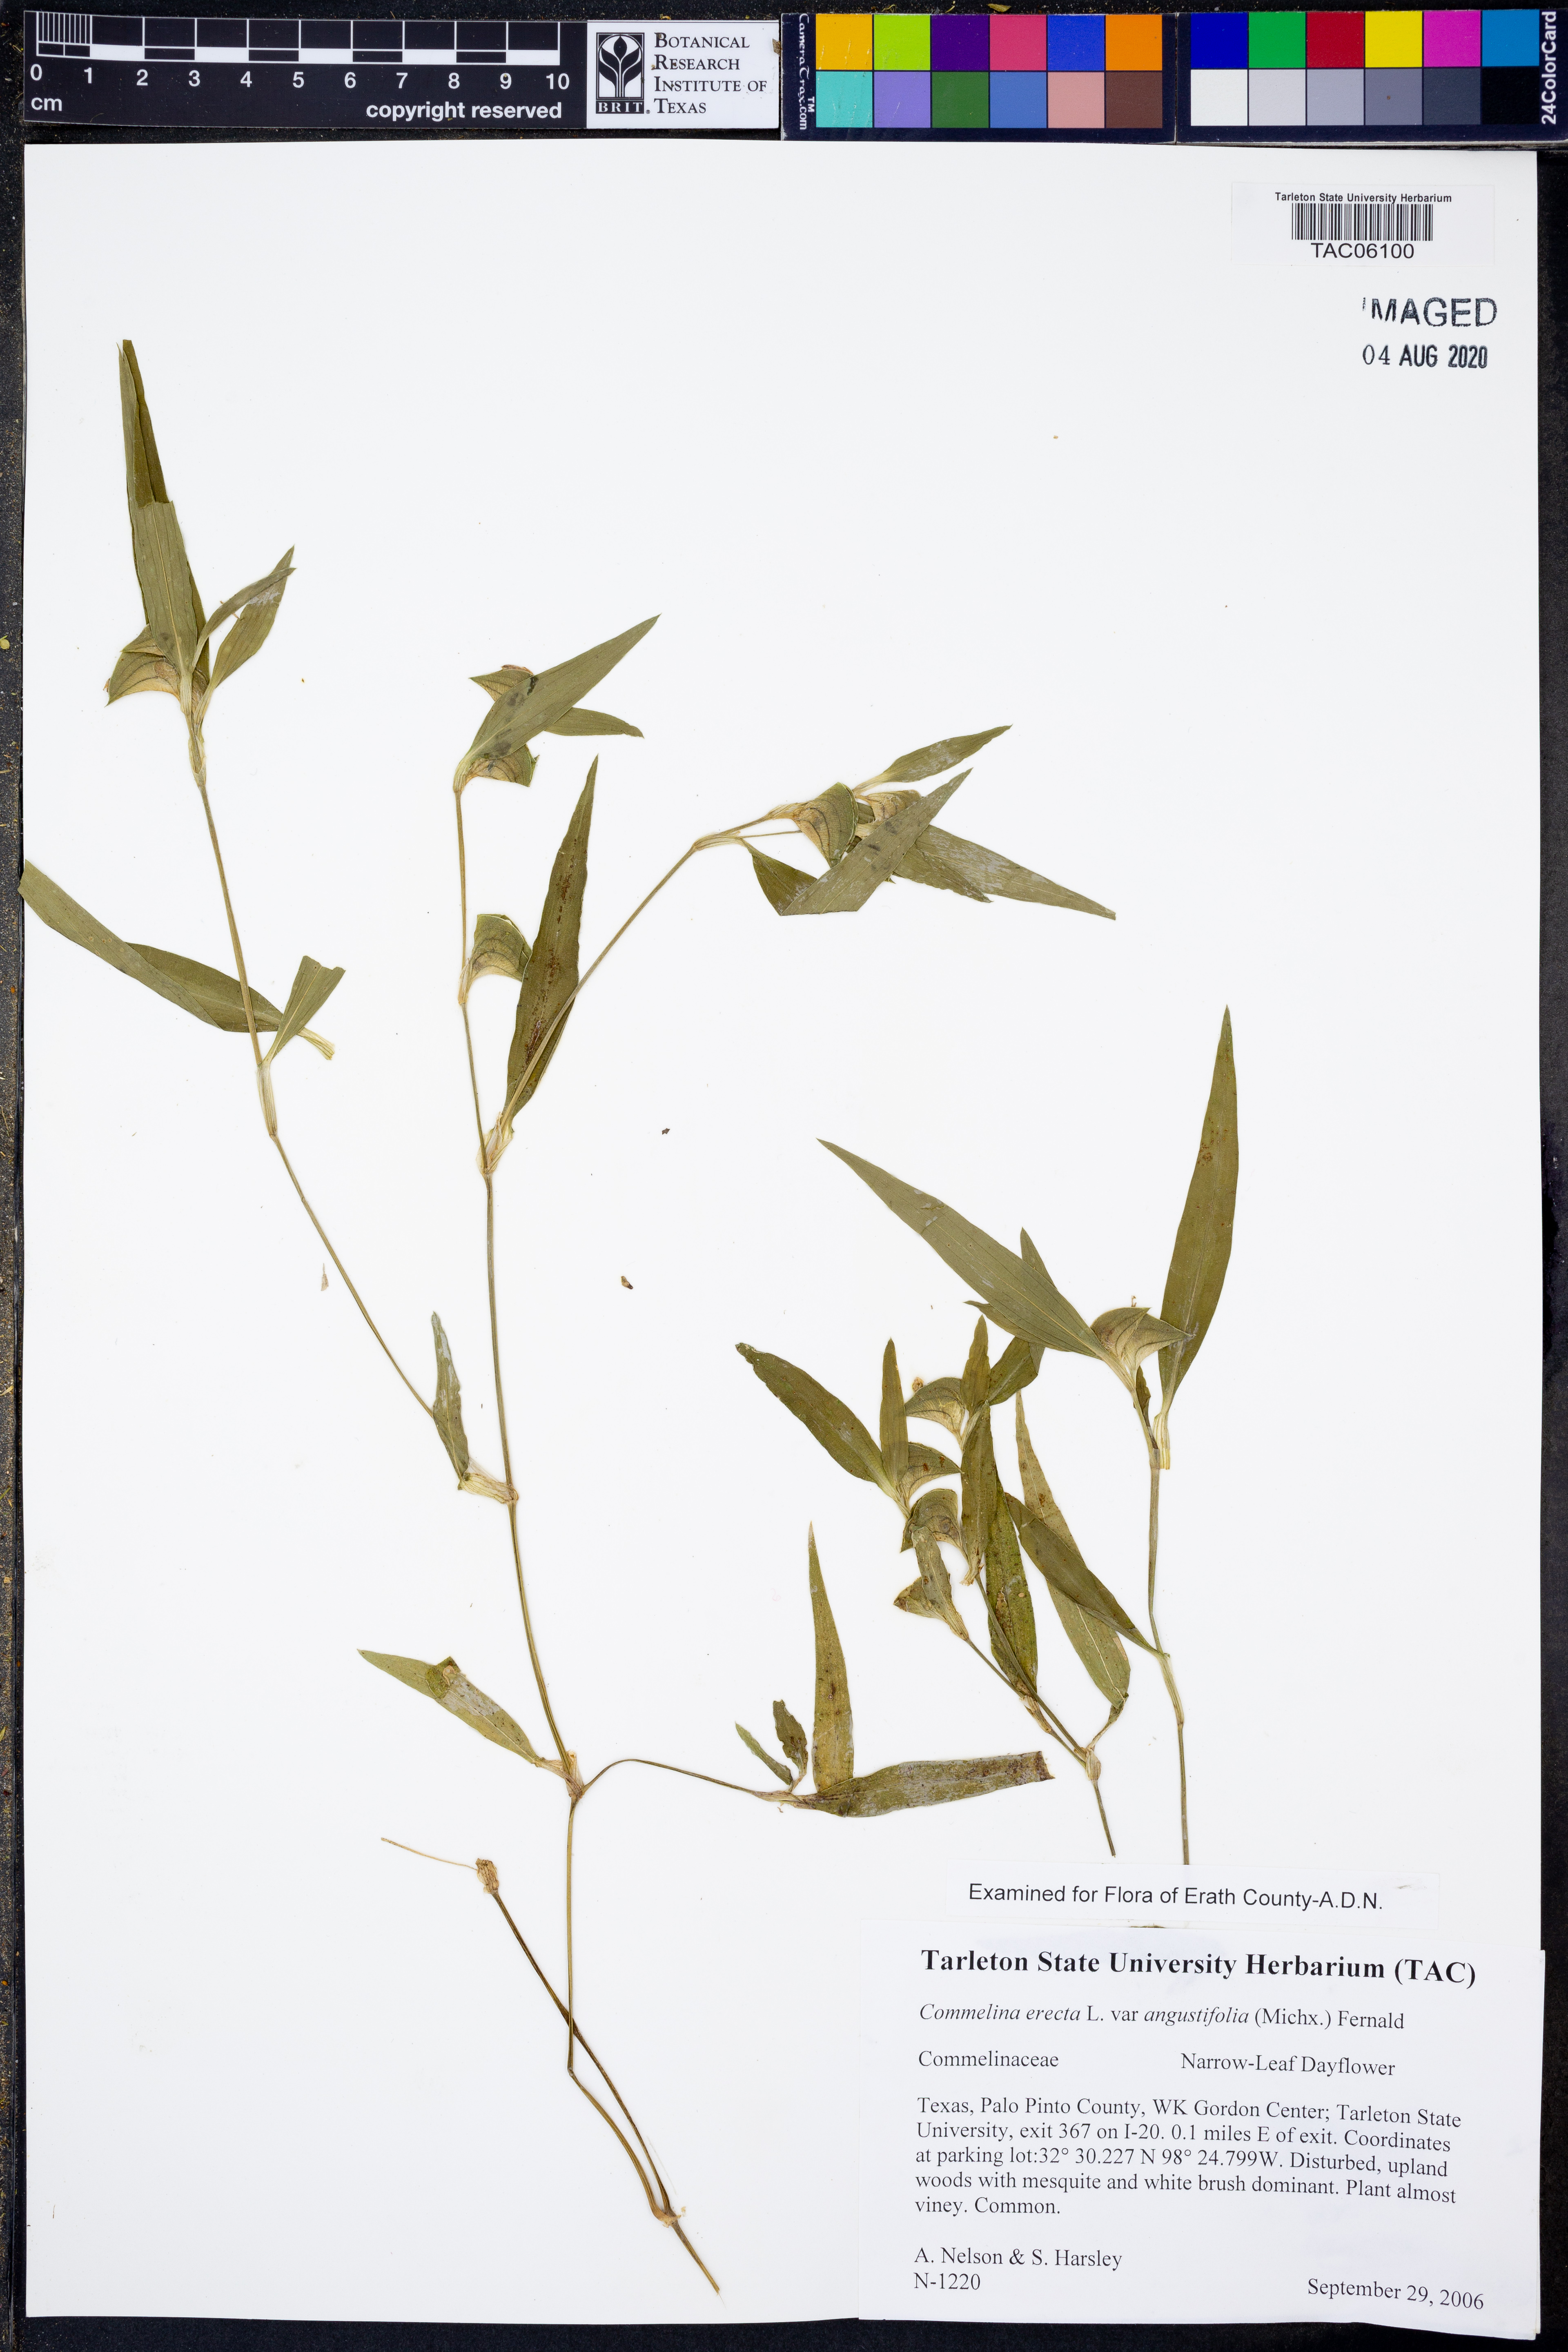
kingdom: Plantae
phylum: Tracheophyta
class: Liliopsida
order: Commelinales
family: Commelinaceae
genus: Commelina
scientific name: Commelina erecta
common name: Blousel blommetjie
